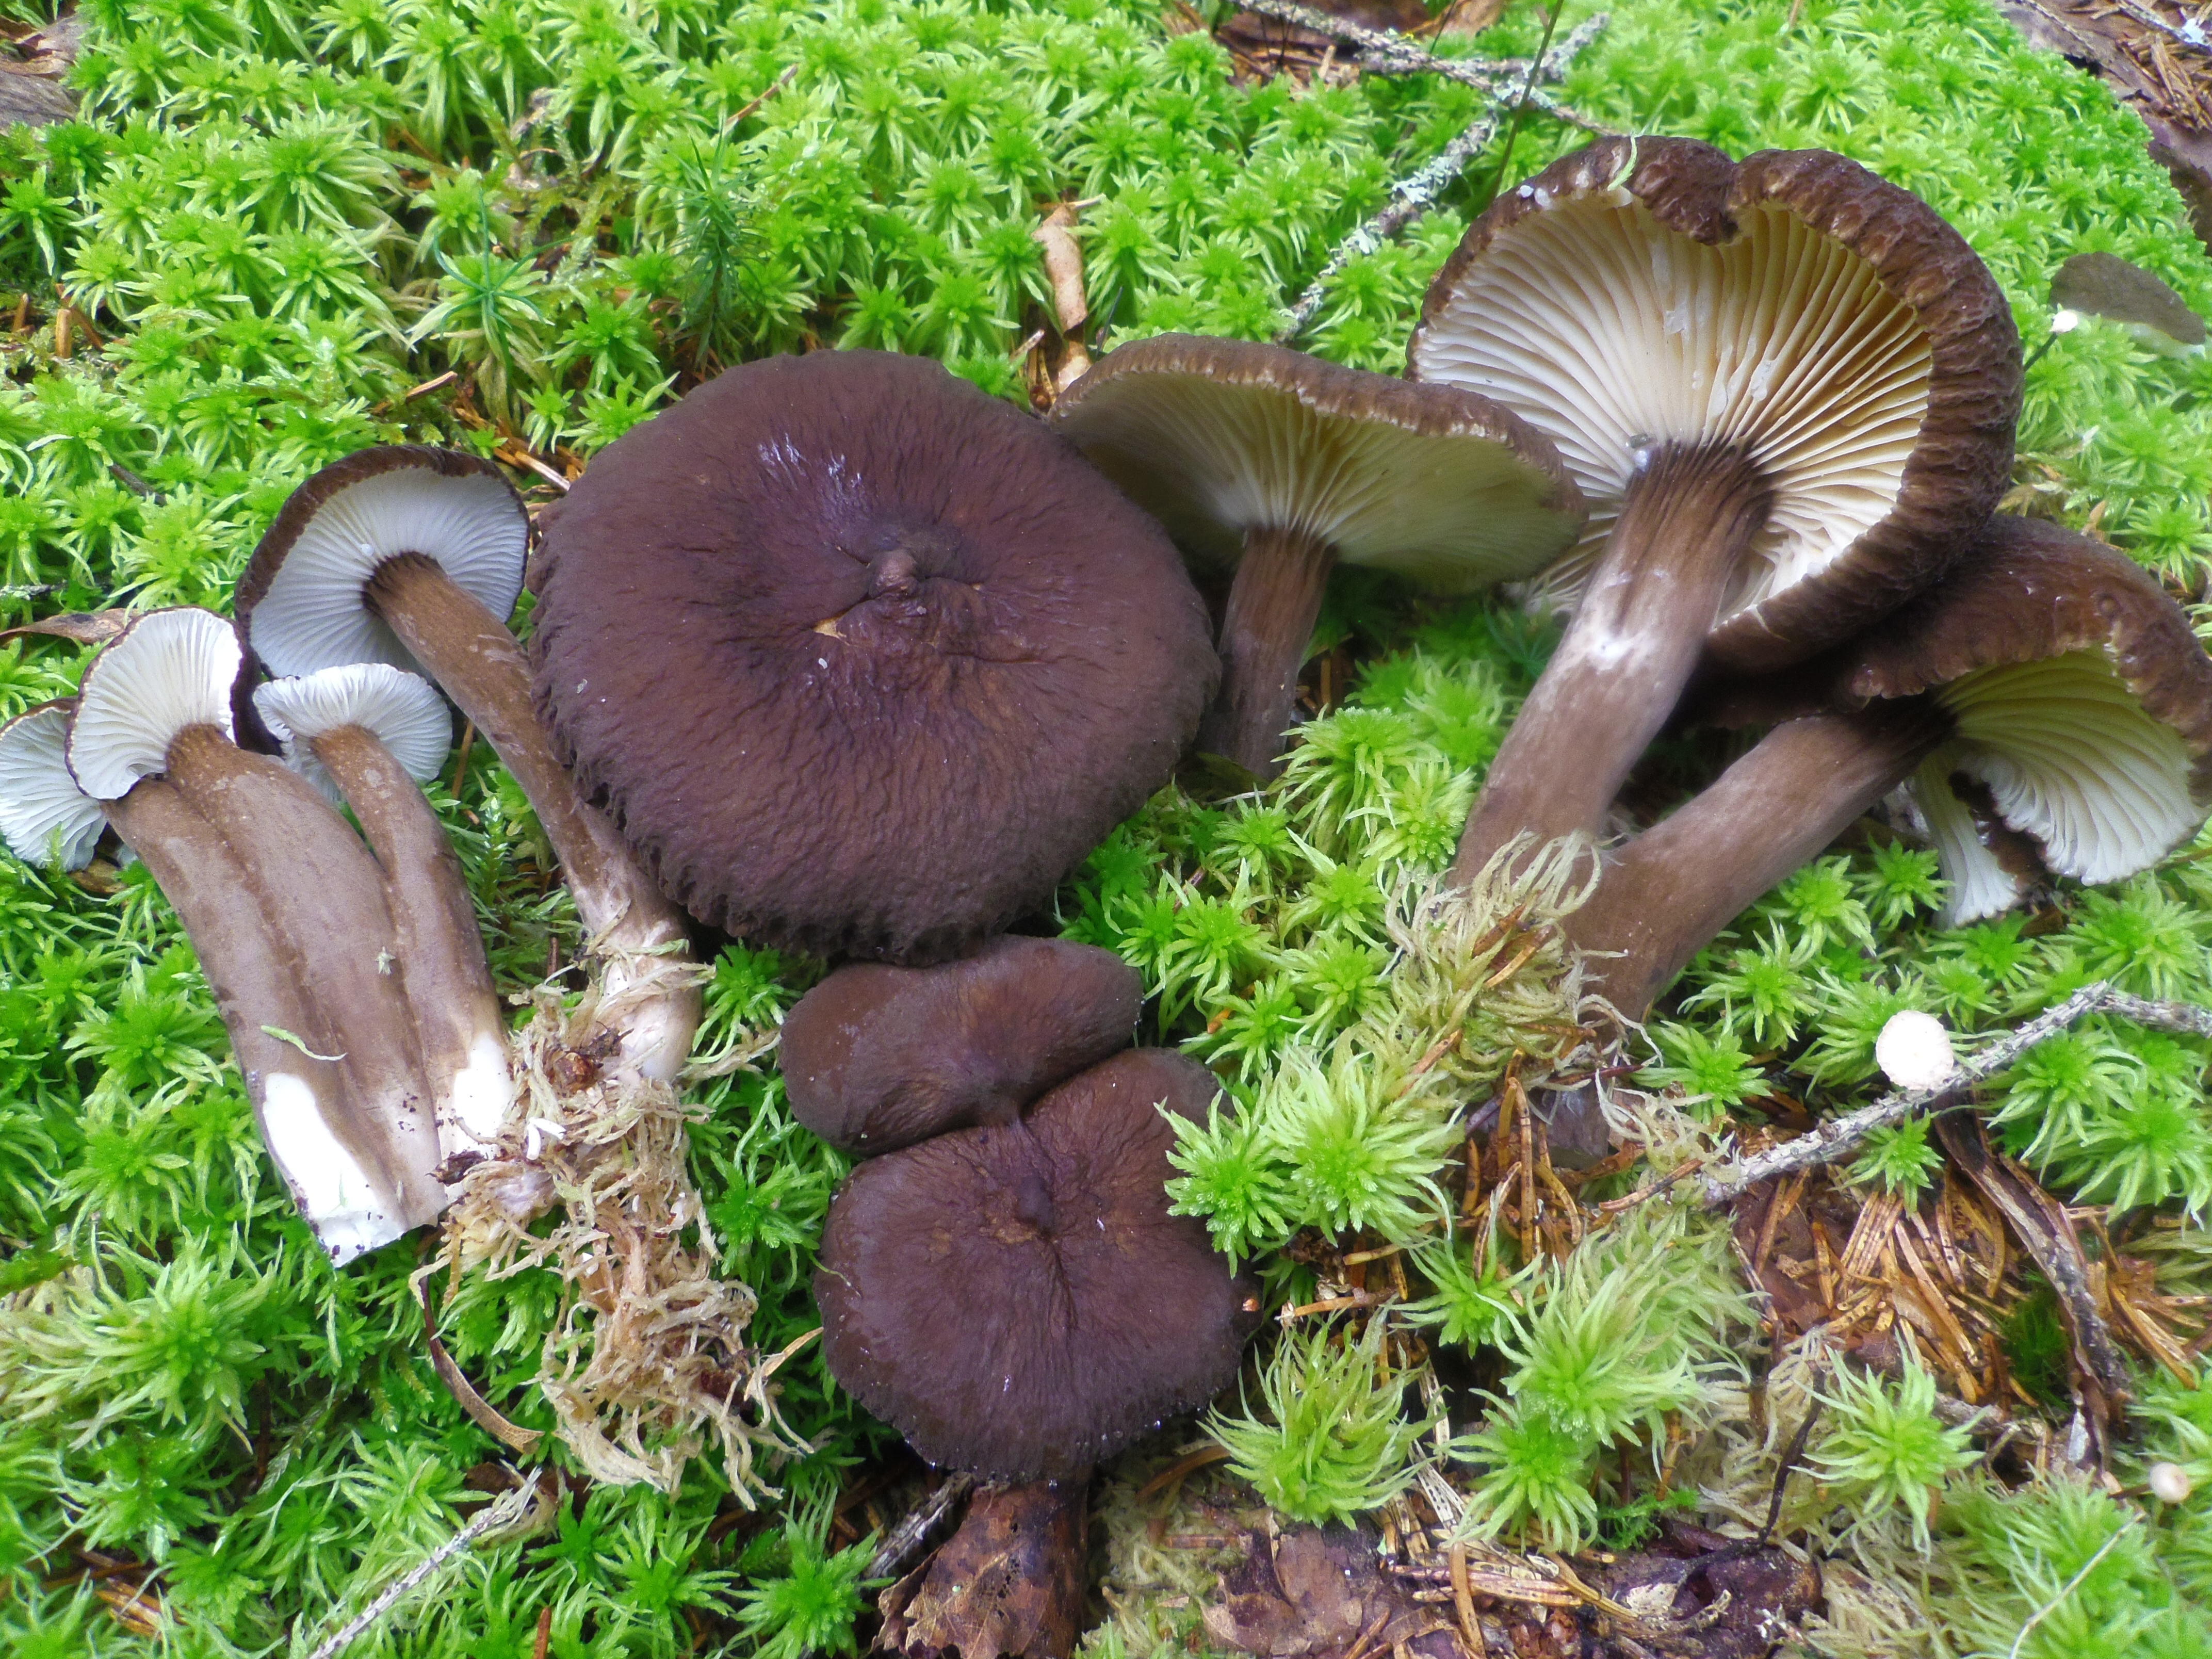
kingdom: Fungi
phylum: Basidiomycota
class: Agaricomycetes
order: Russulales
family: Russulaceae
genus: Lactarius
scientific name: Lactarius lignyotus
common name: Velvet milkcap
